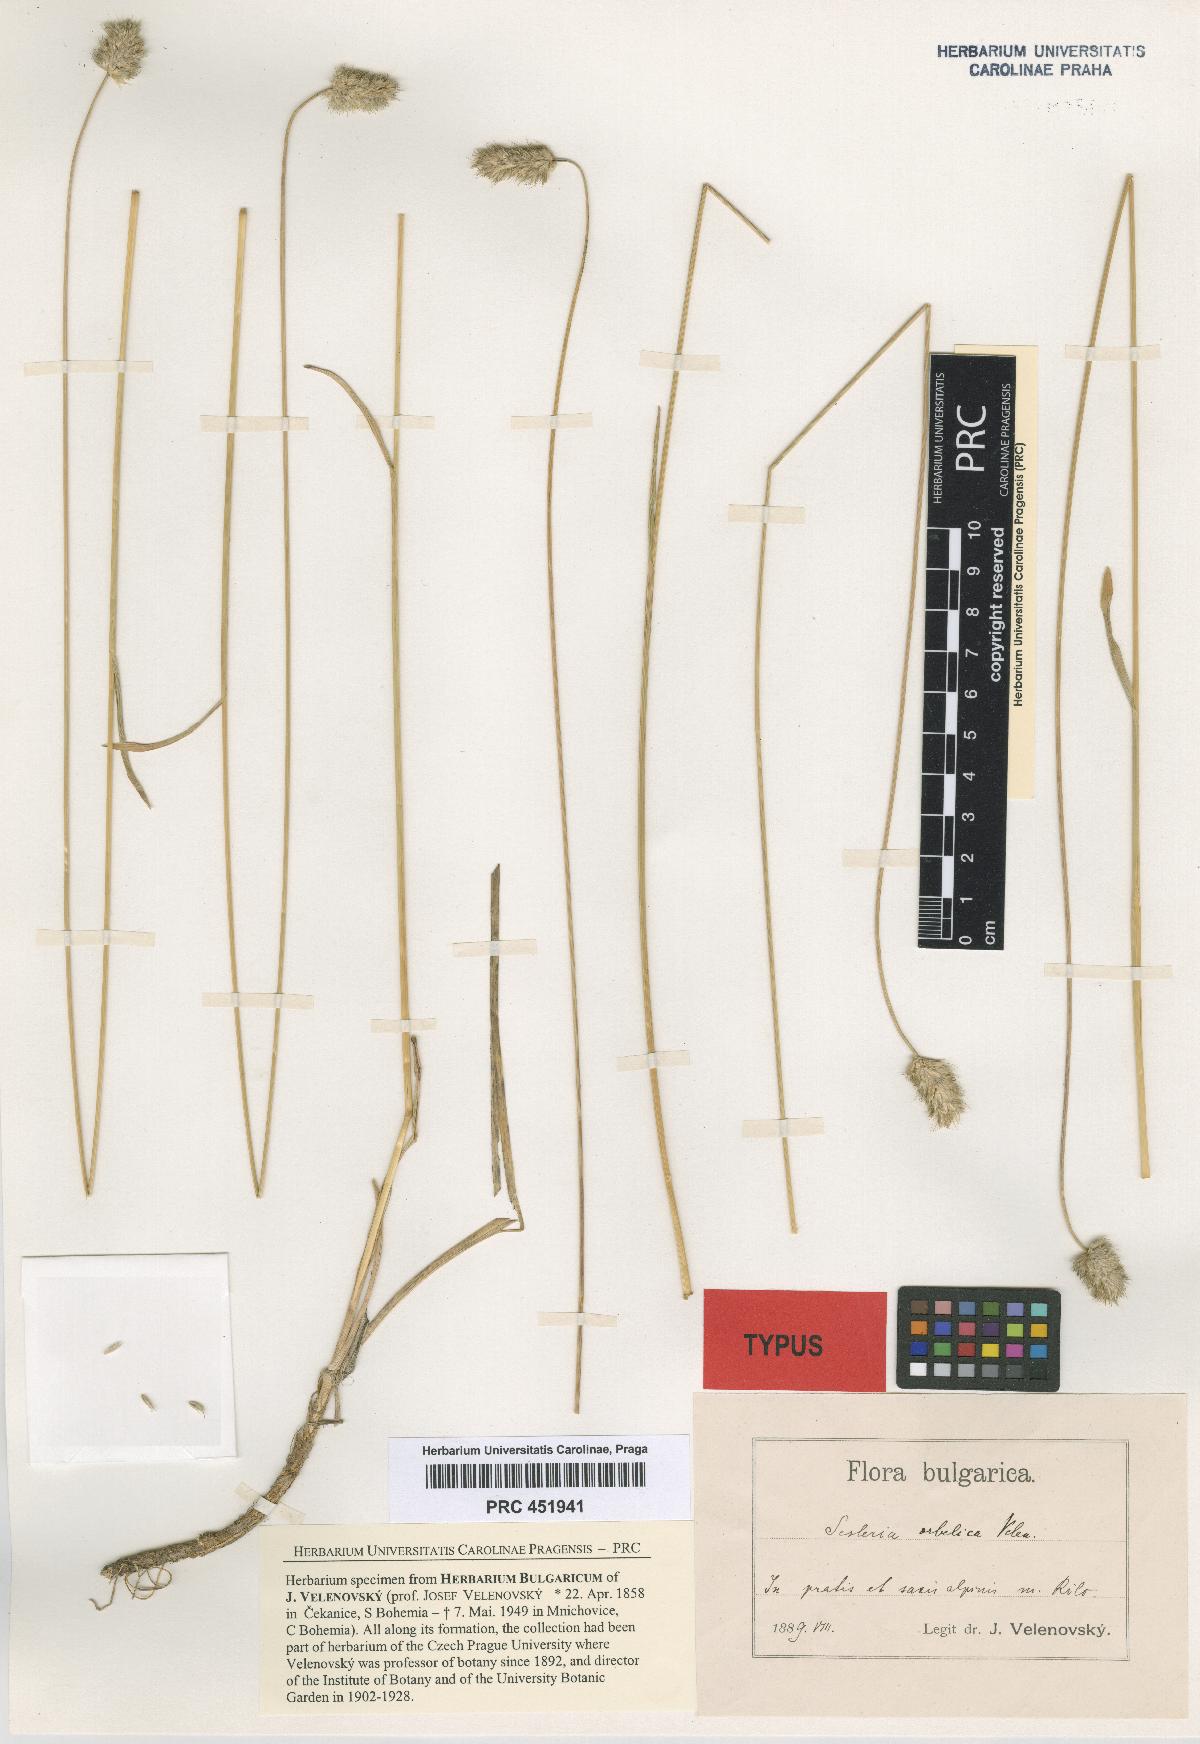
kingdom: Plantae
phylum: Tracheophyta
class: Liliopsida
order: Poales
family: Poaceae
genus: Sesleria
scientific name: Sesleria coerulans
